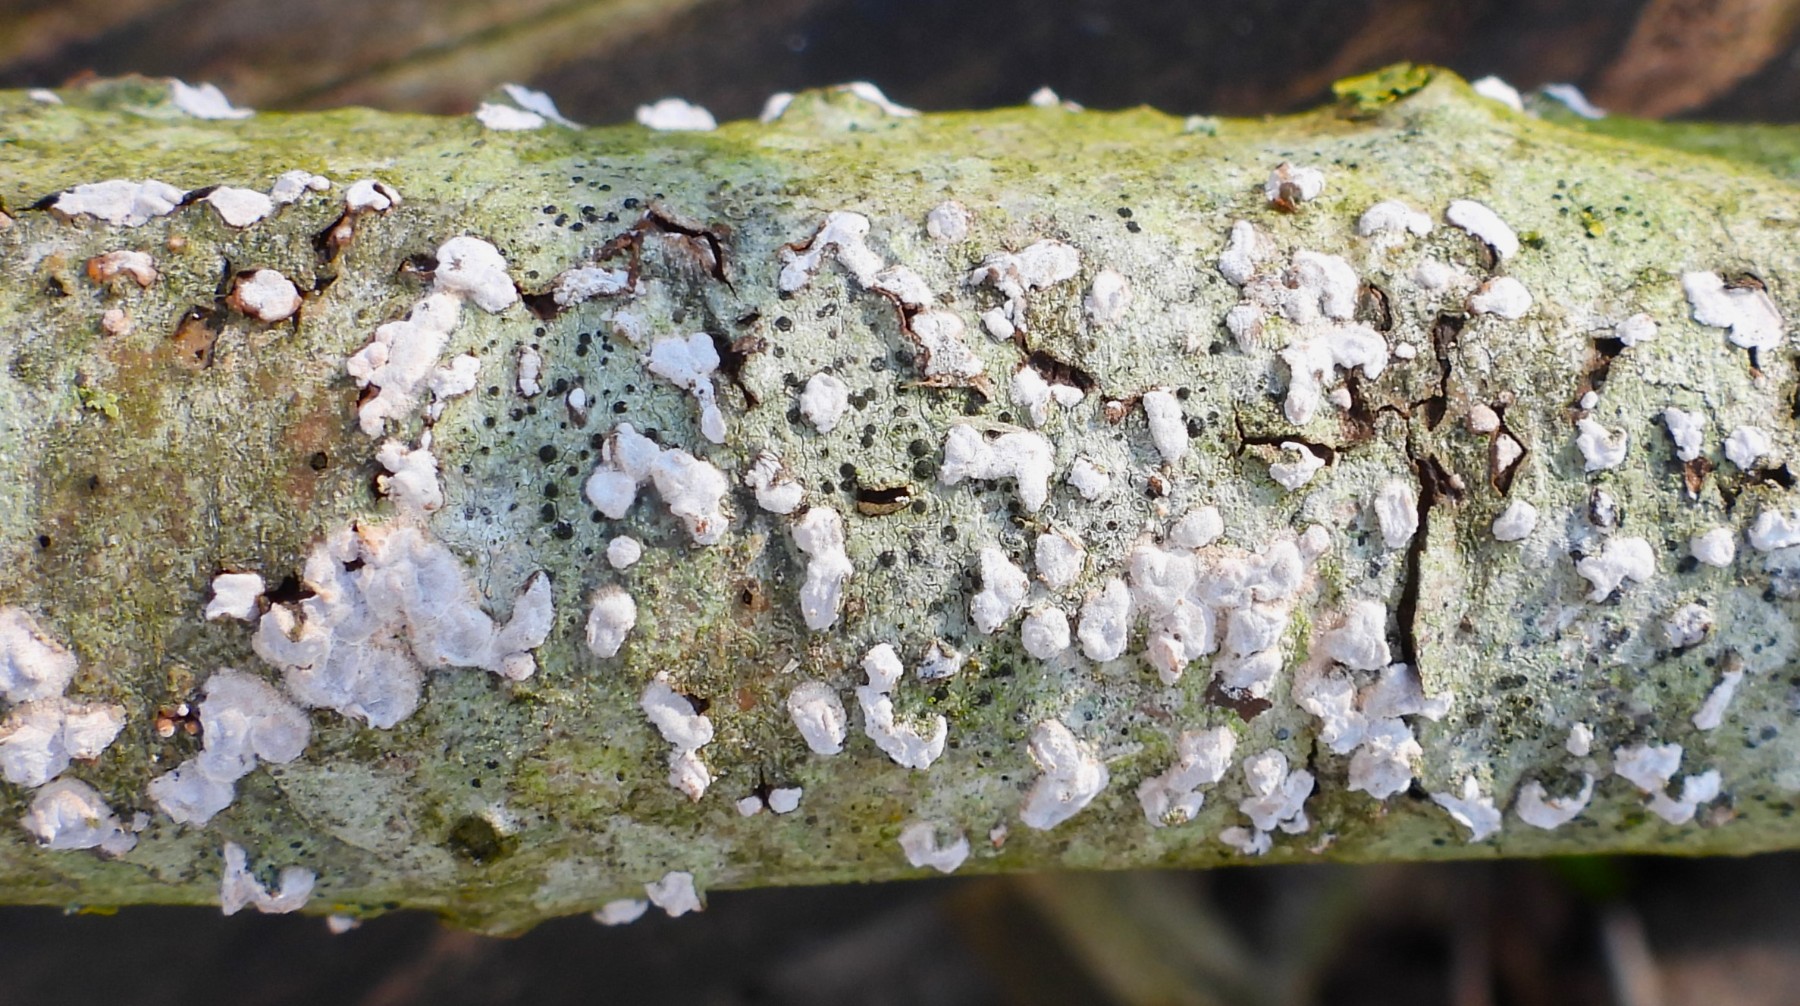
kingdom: Fungi
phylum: Basidiomycota
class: Agaricomycetes
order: Russulales
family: Peniophoraceae
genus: Peniophora
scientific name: Peniophora polygonia
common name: polygon-voksskind
